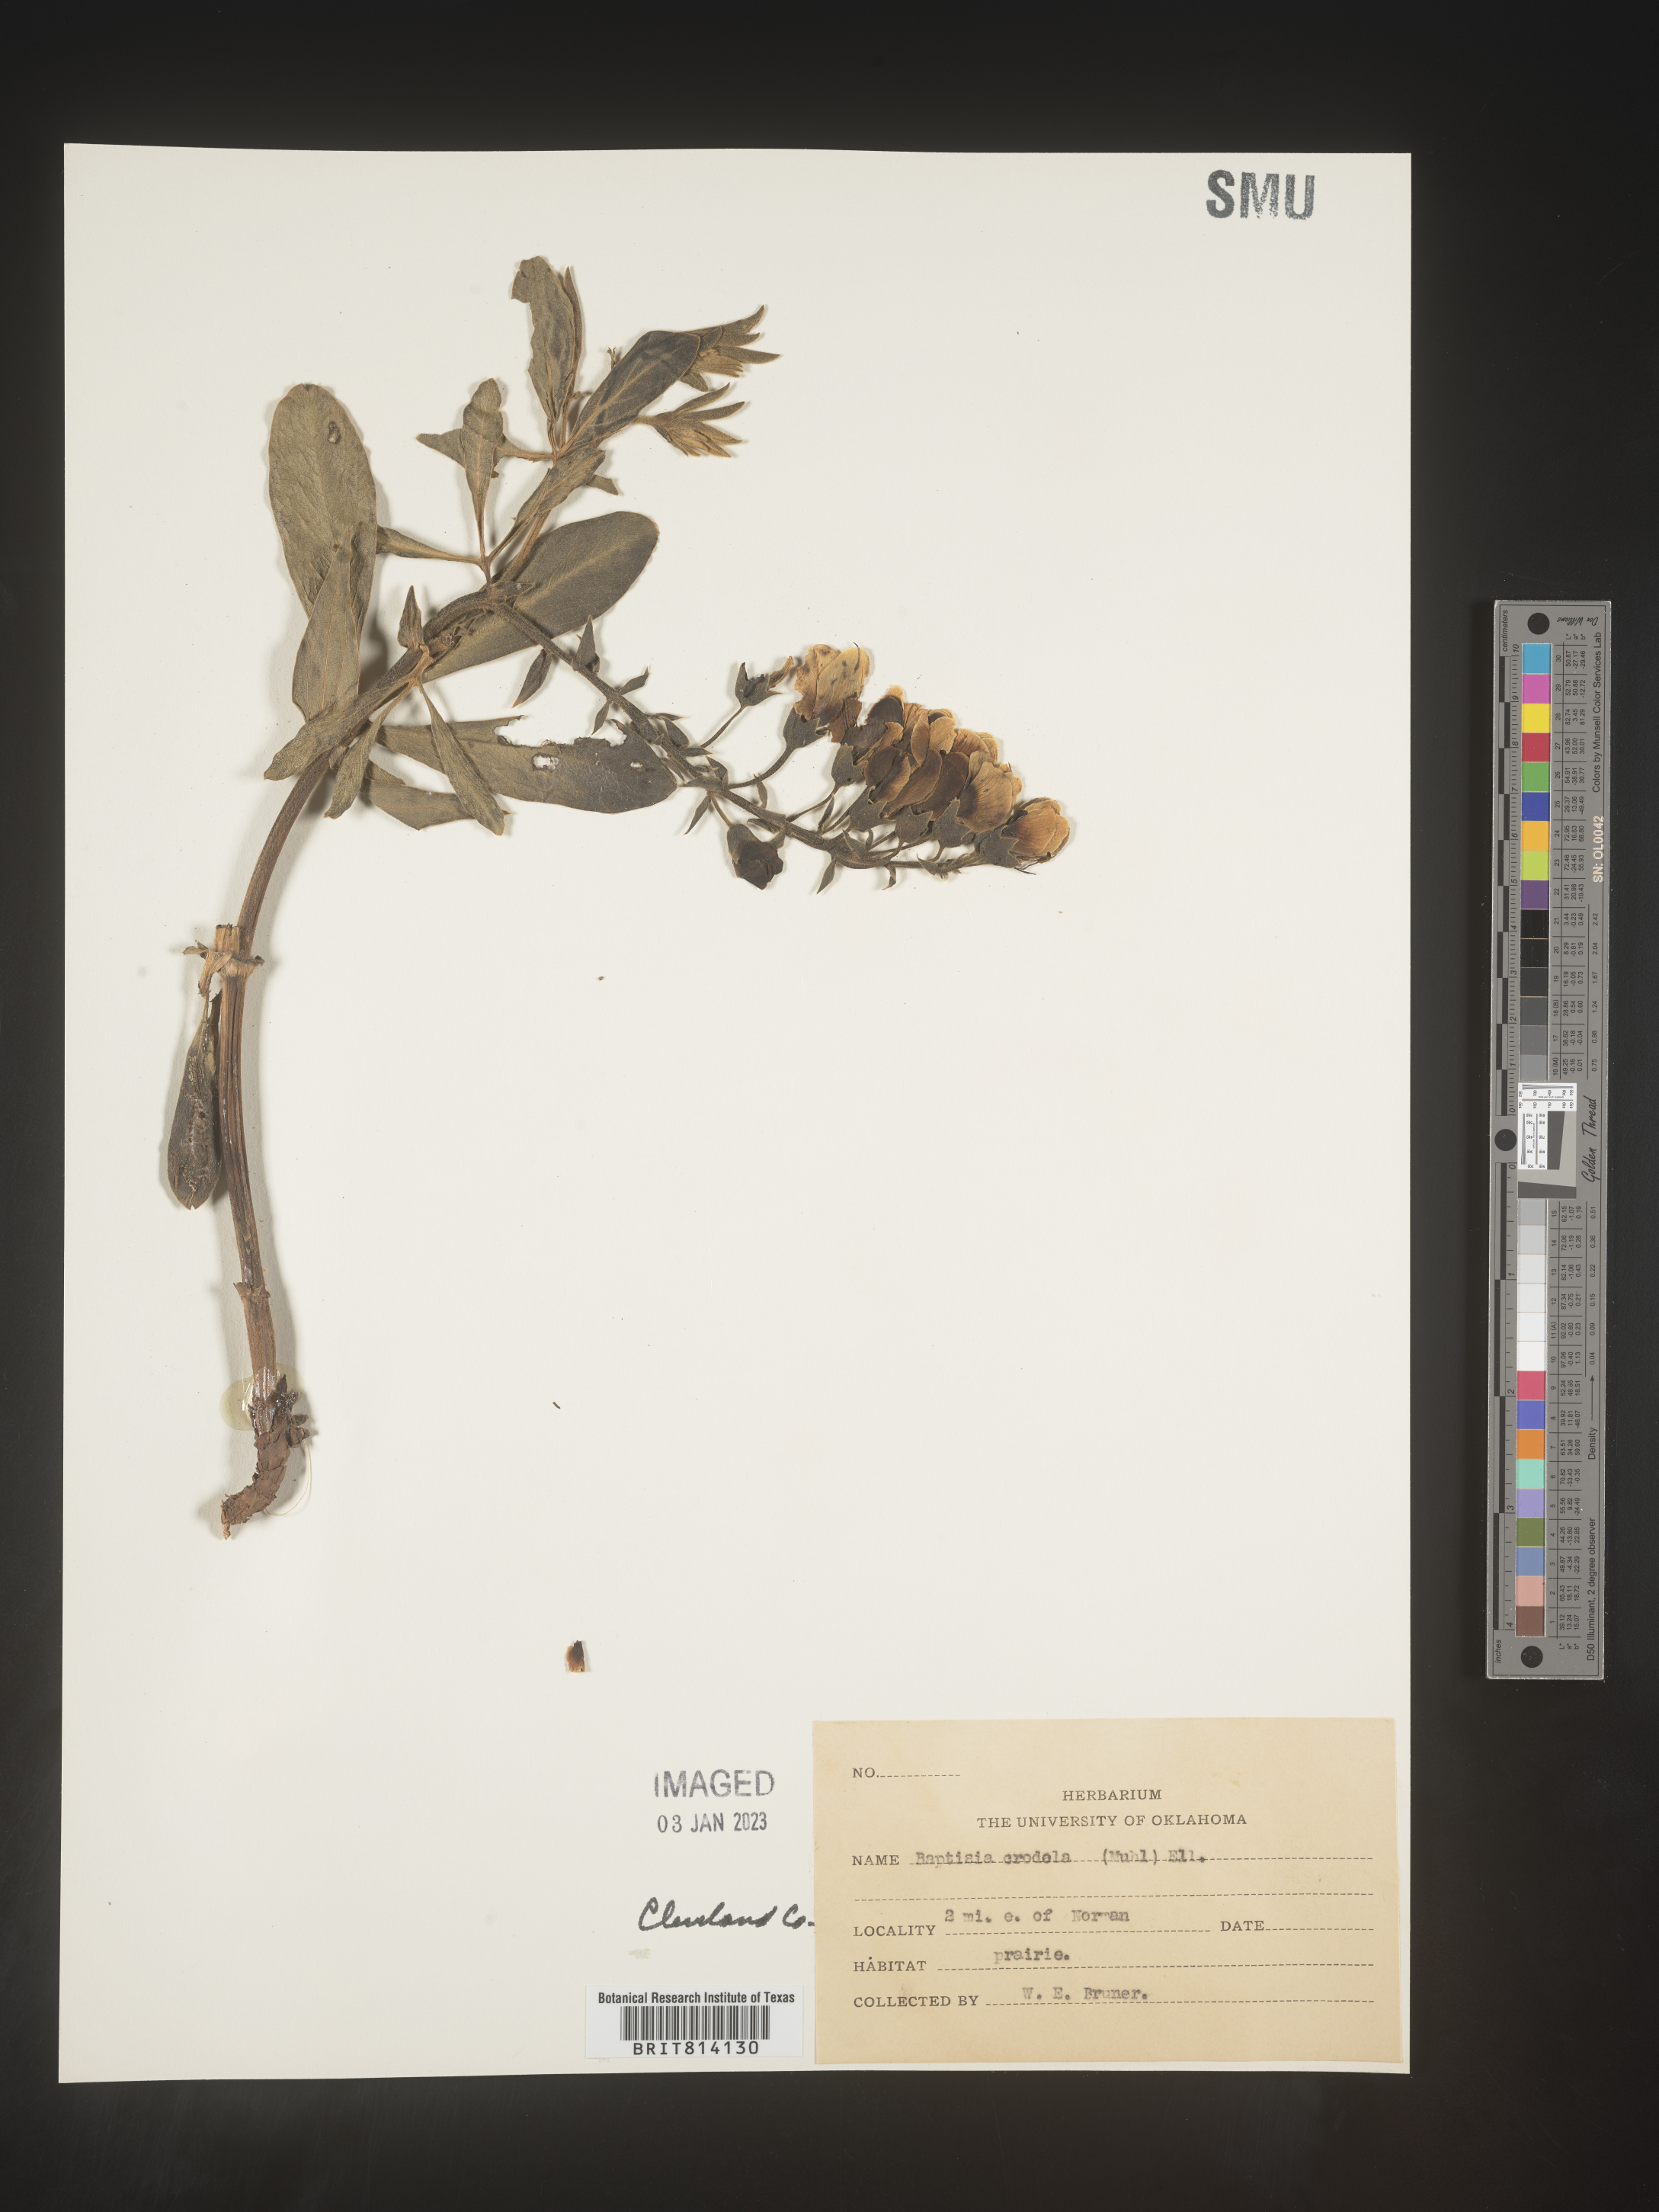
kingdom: Plantae
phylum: Tracheophyta
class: Magnoliopsida
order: Fabales
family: Fabaceae
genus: Baptisia
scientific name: Baptisia
